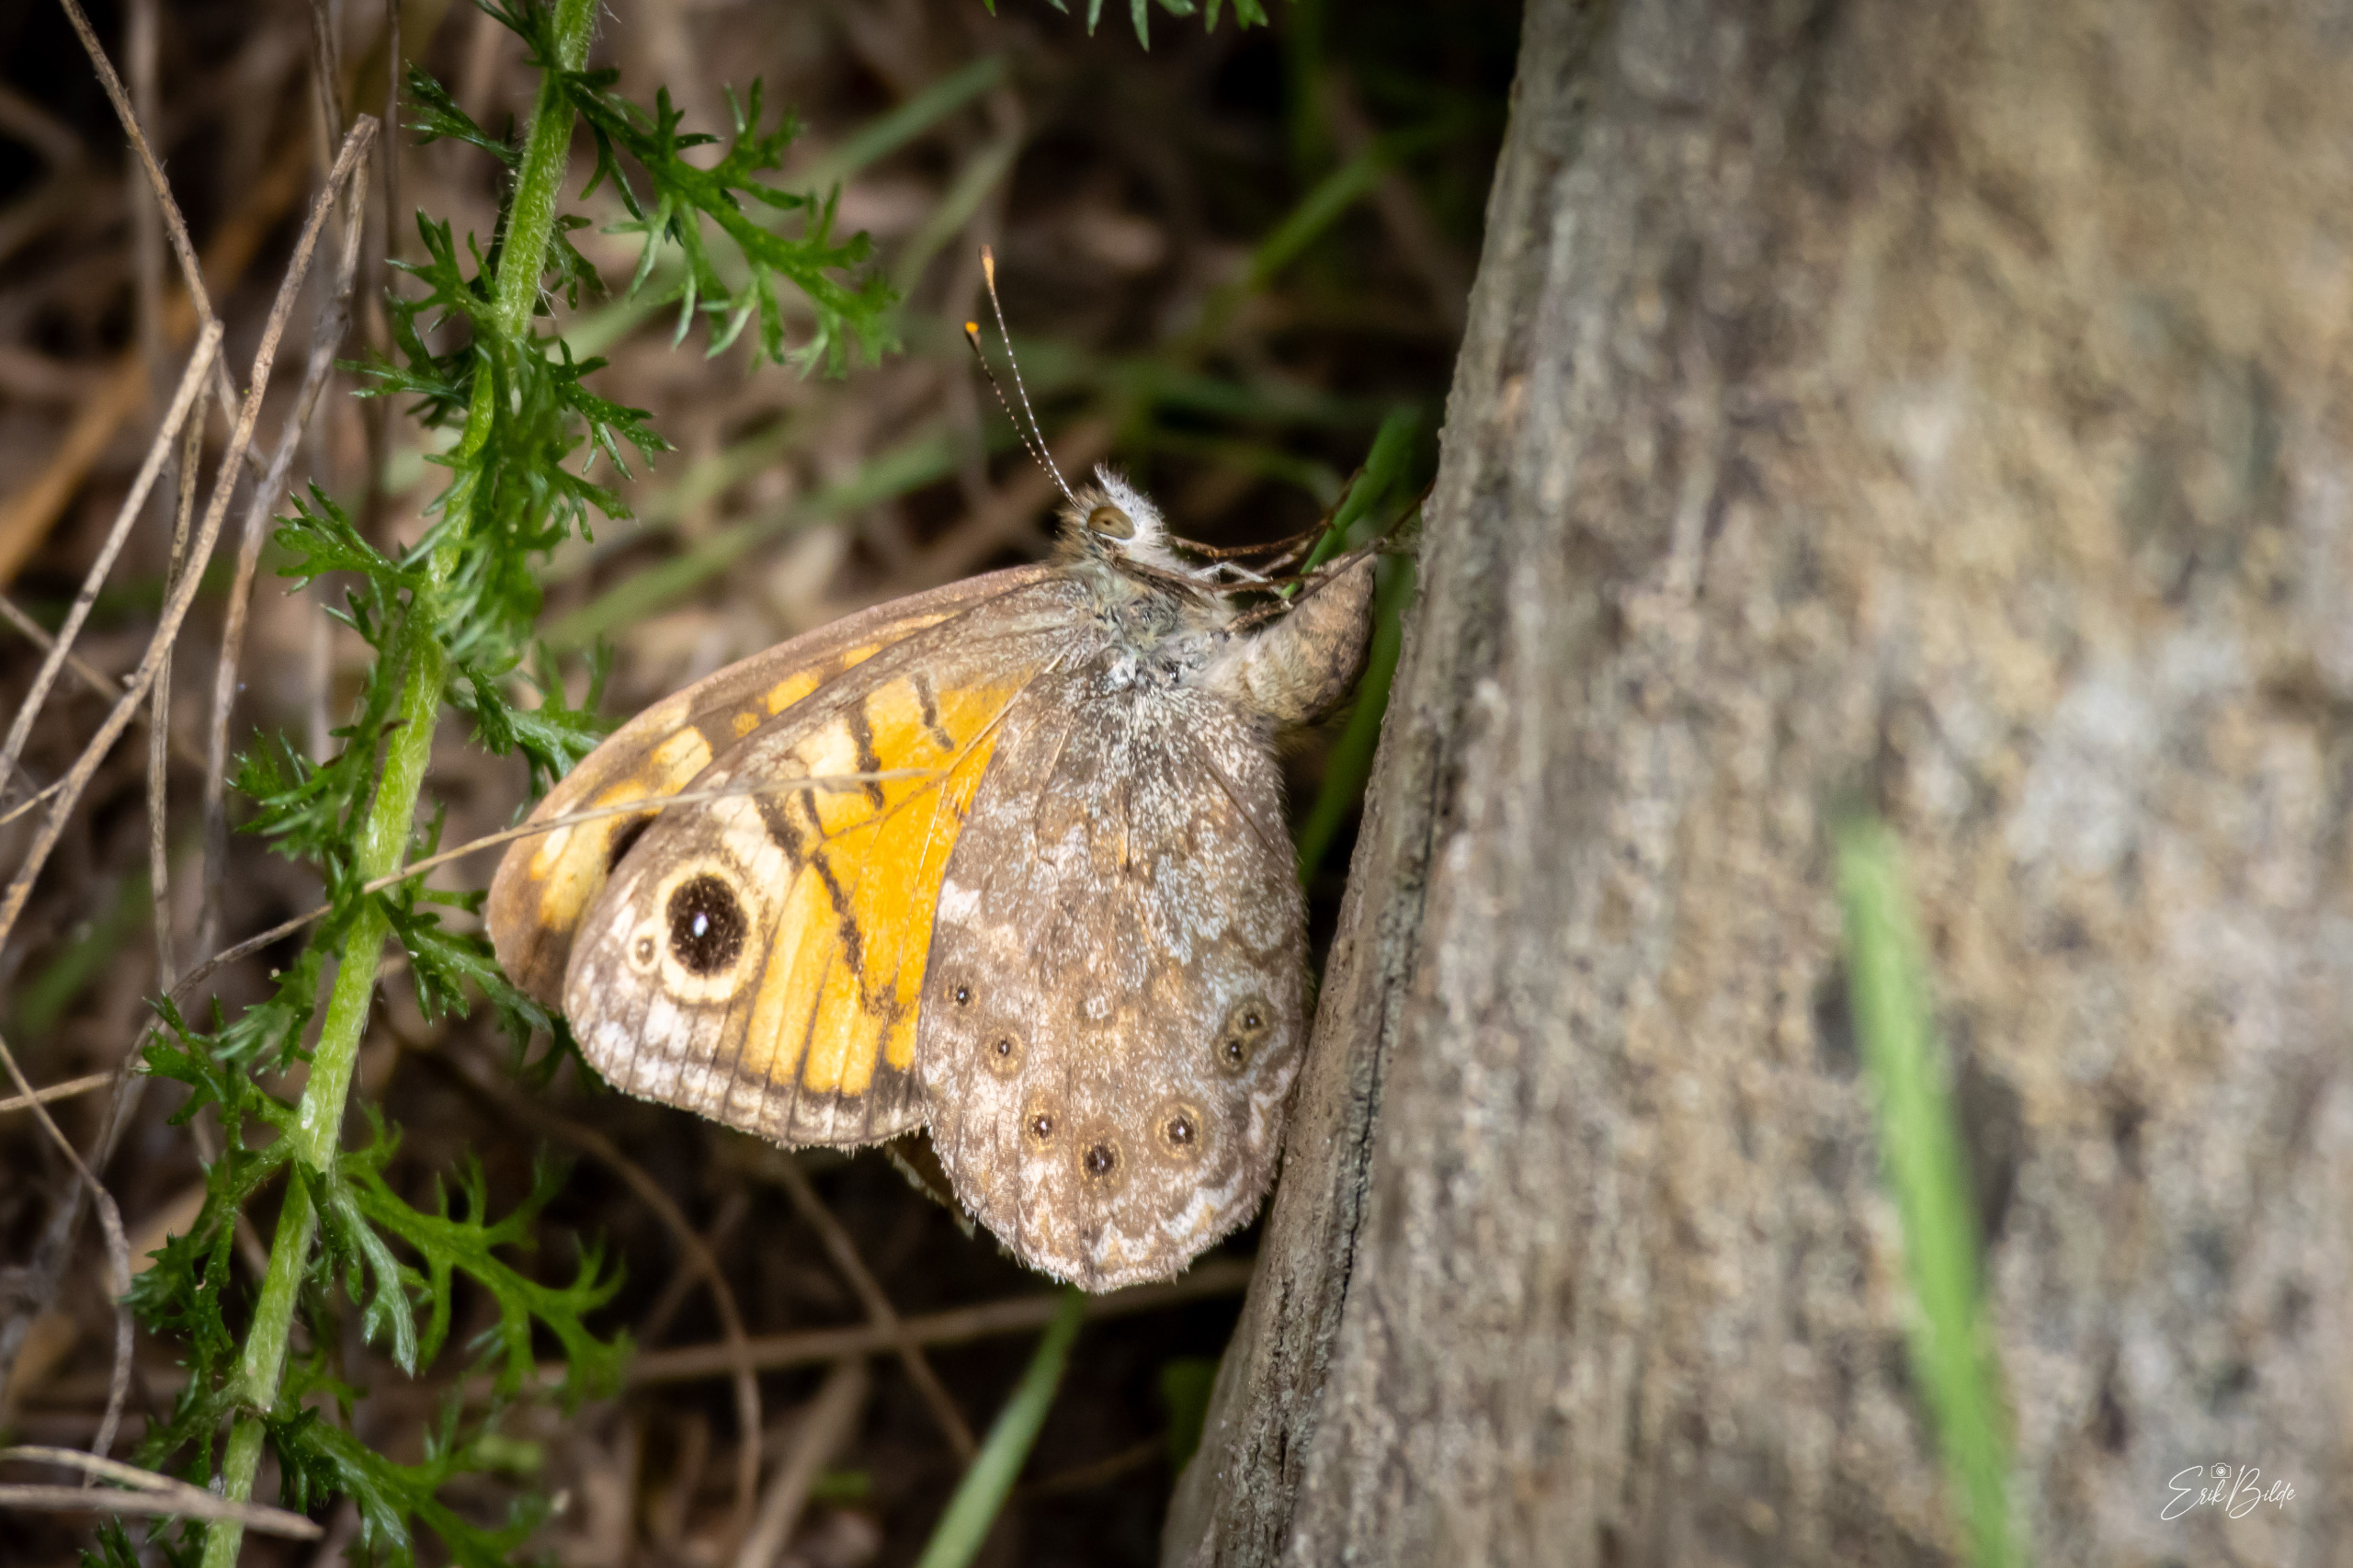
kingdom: Animalia
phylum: Arthropoda
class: Insecta
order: Lepidoptera
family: Nymphalidae
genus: Pararge
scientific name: Pararge Lasiommata megera
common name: Vejrandøje
